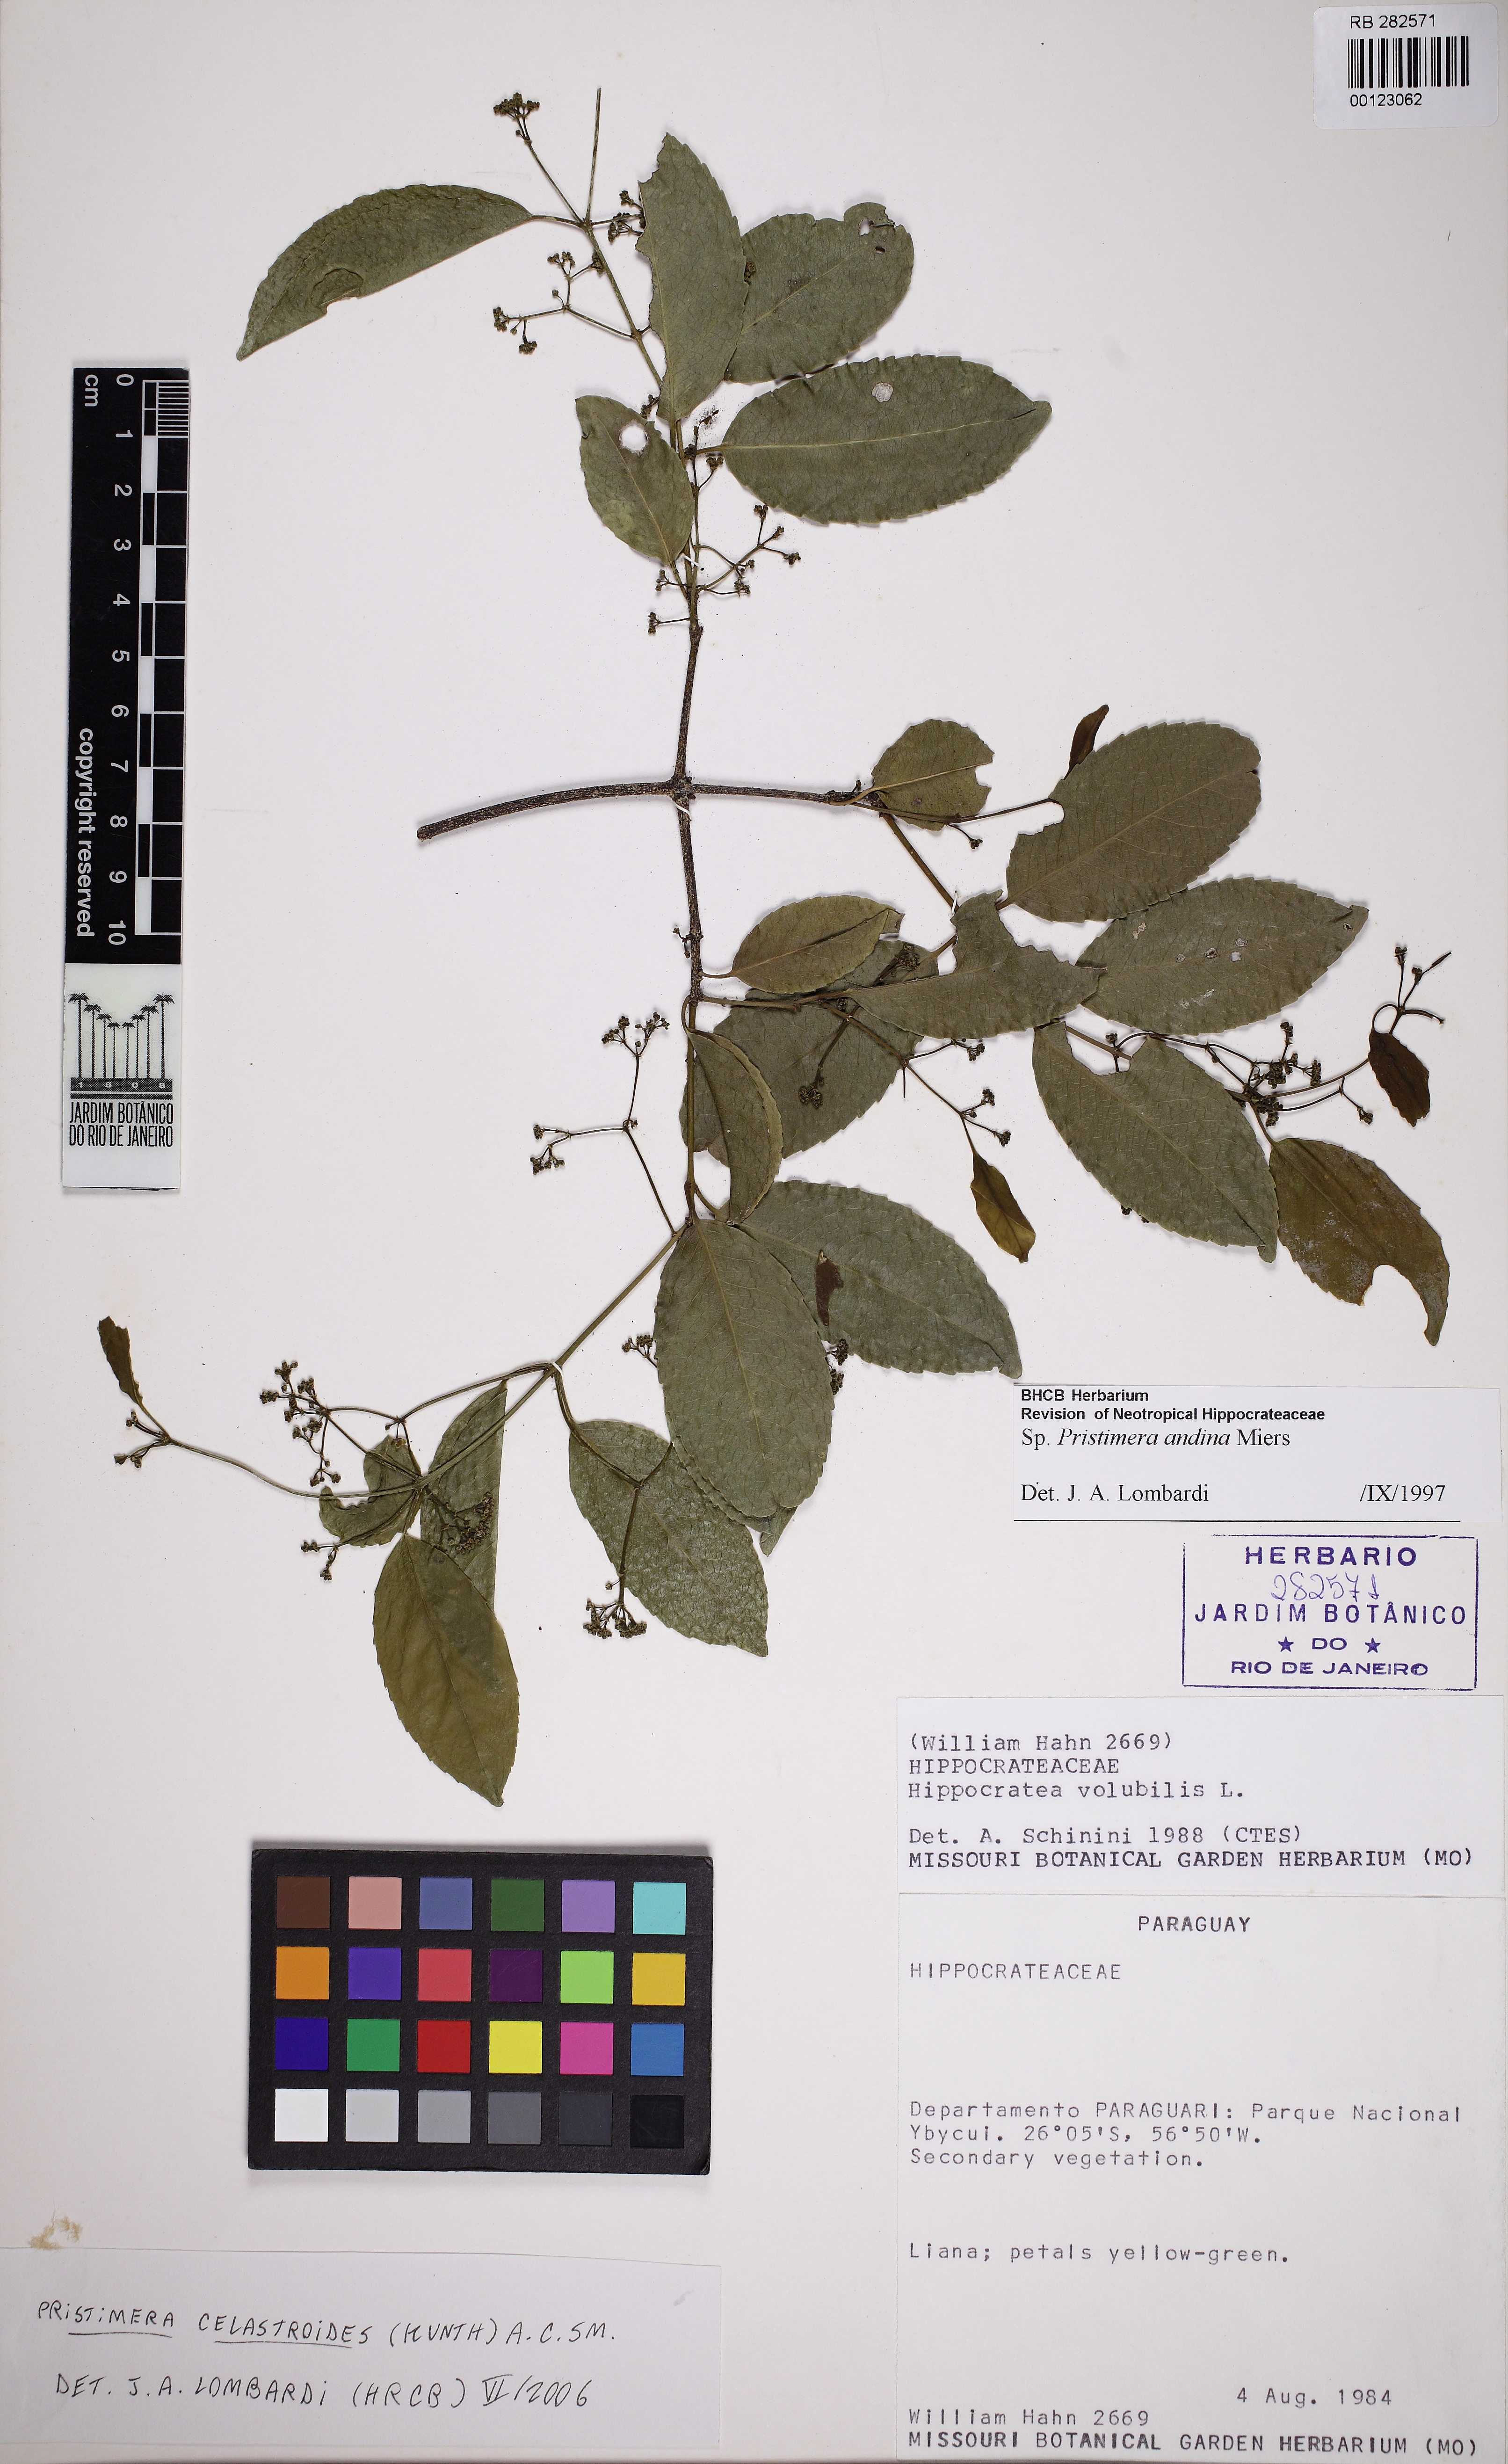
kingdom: Plantae
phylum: Tracheophyta
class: Magnoliopsida
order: Celastrales
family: Celastraceae
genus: Pristimera
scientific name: Pristimera celastroides
